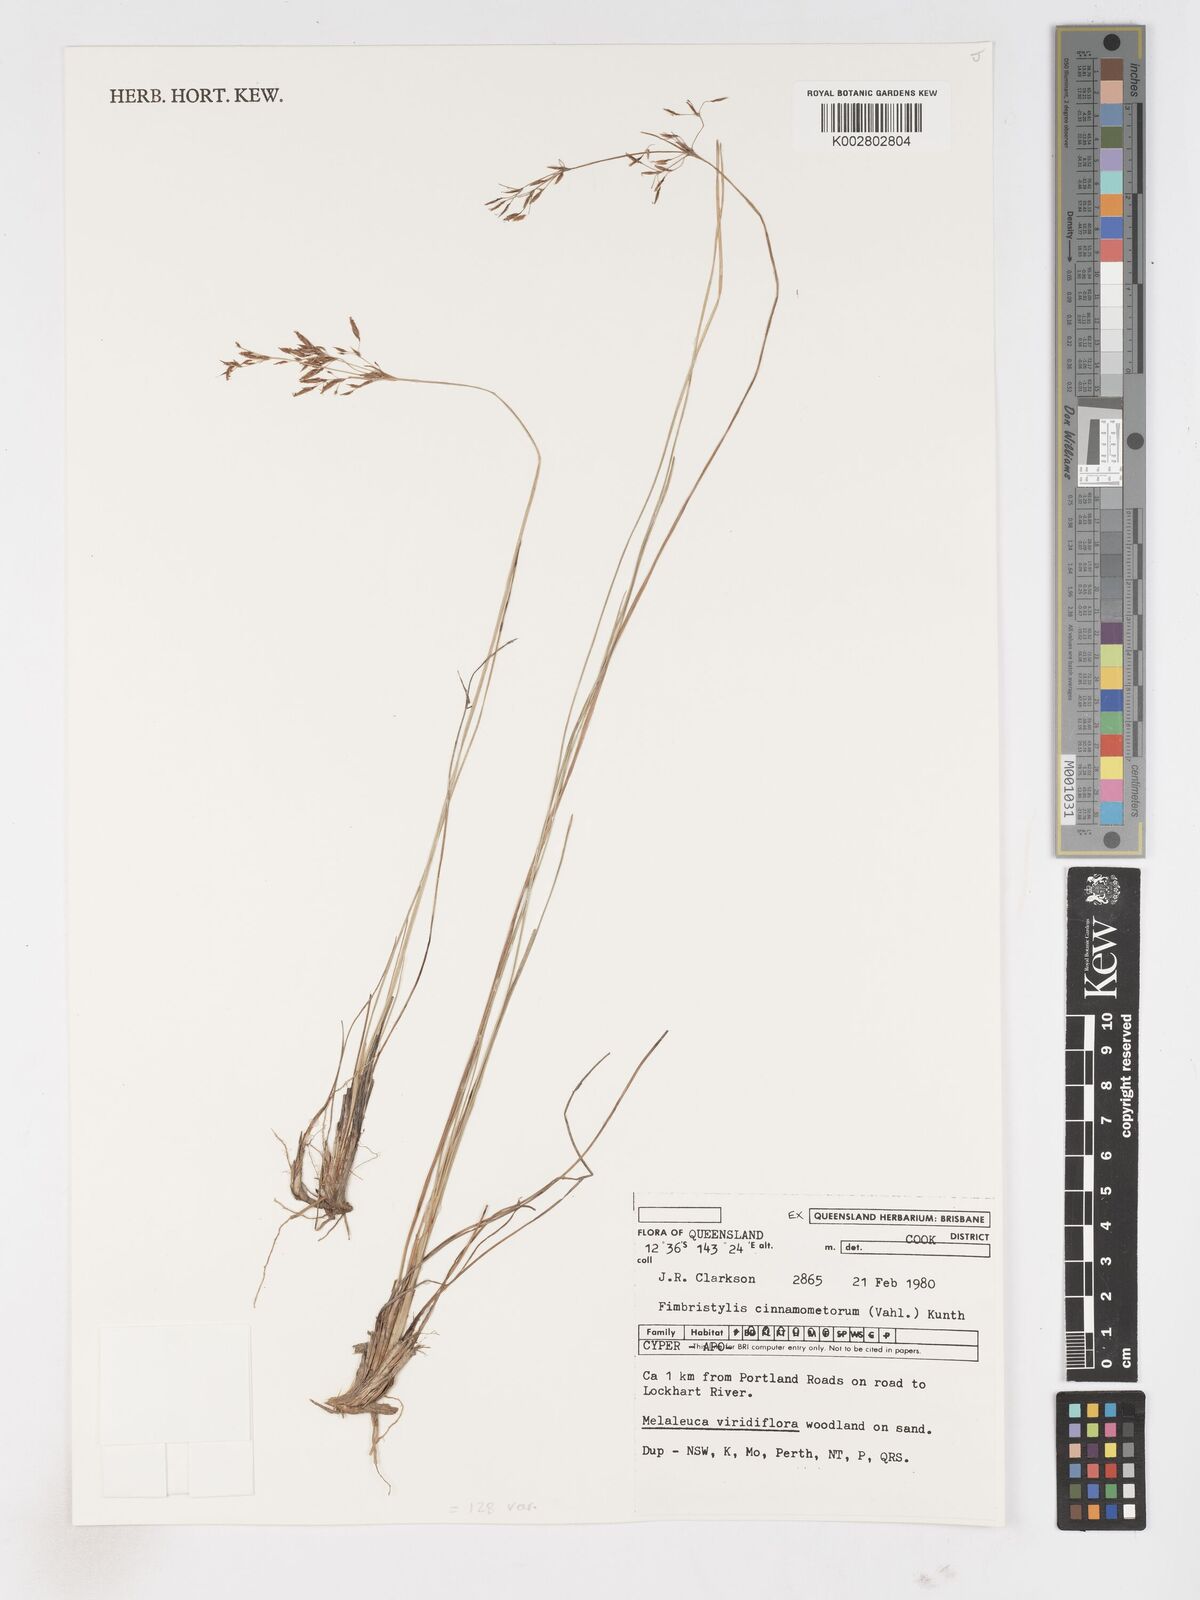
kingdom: Plantae
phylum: Tracheophyta
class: Liliopsida
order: Poales
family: Cyperaceae
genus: Fimbristylis
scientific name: Fimbristylis cinnamometorum
